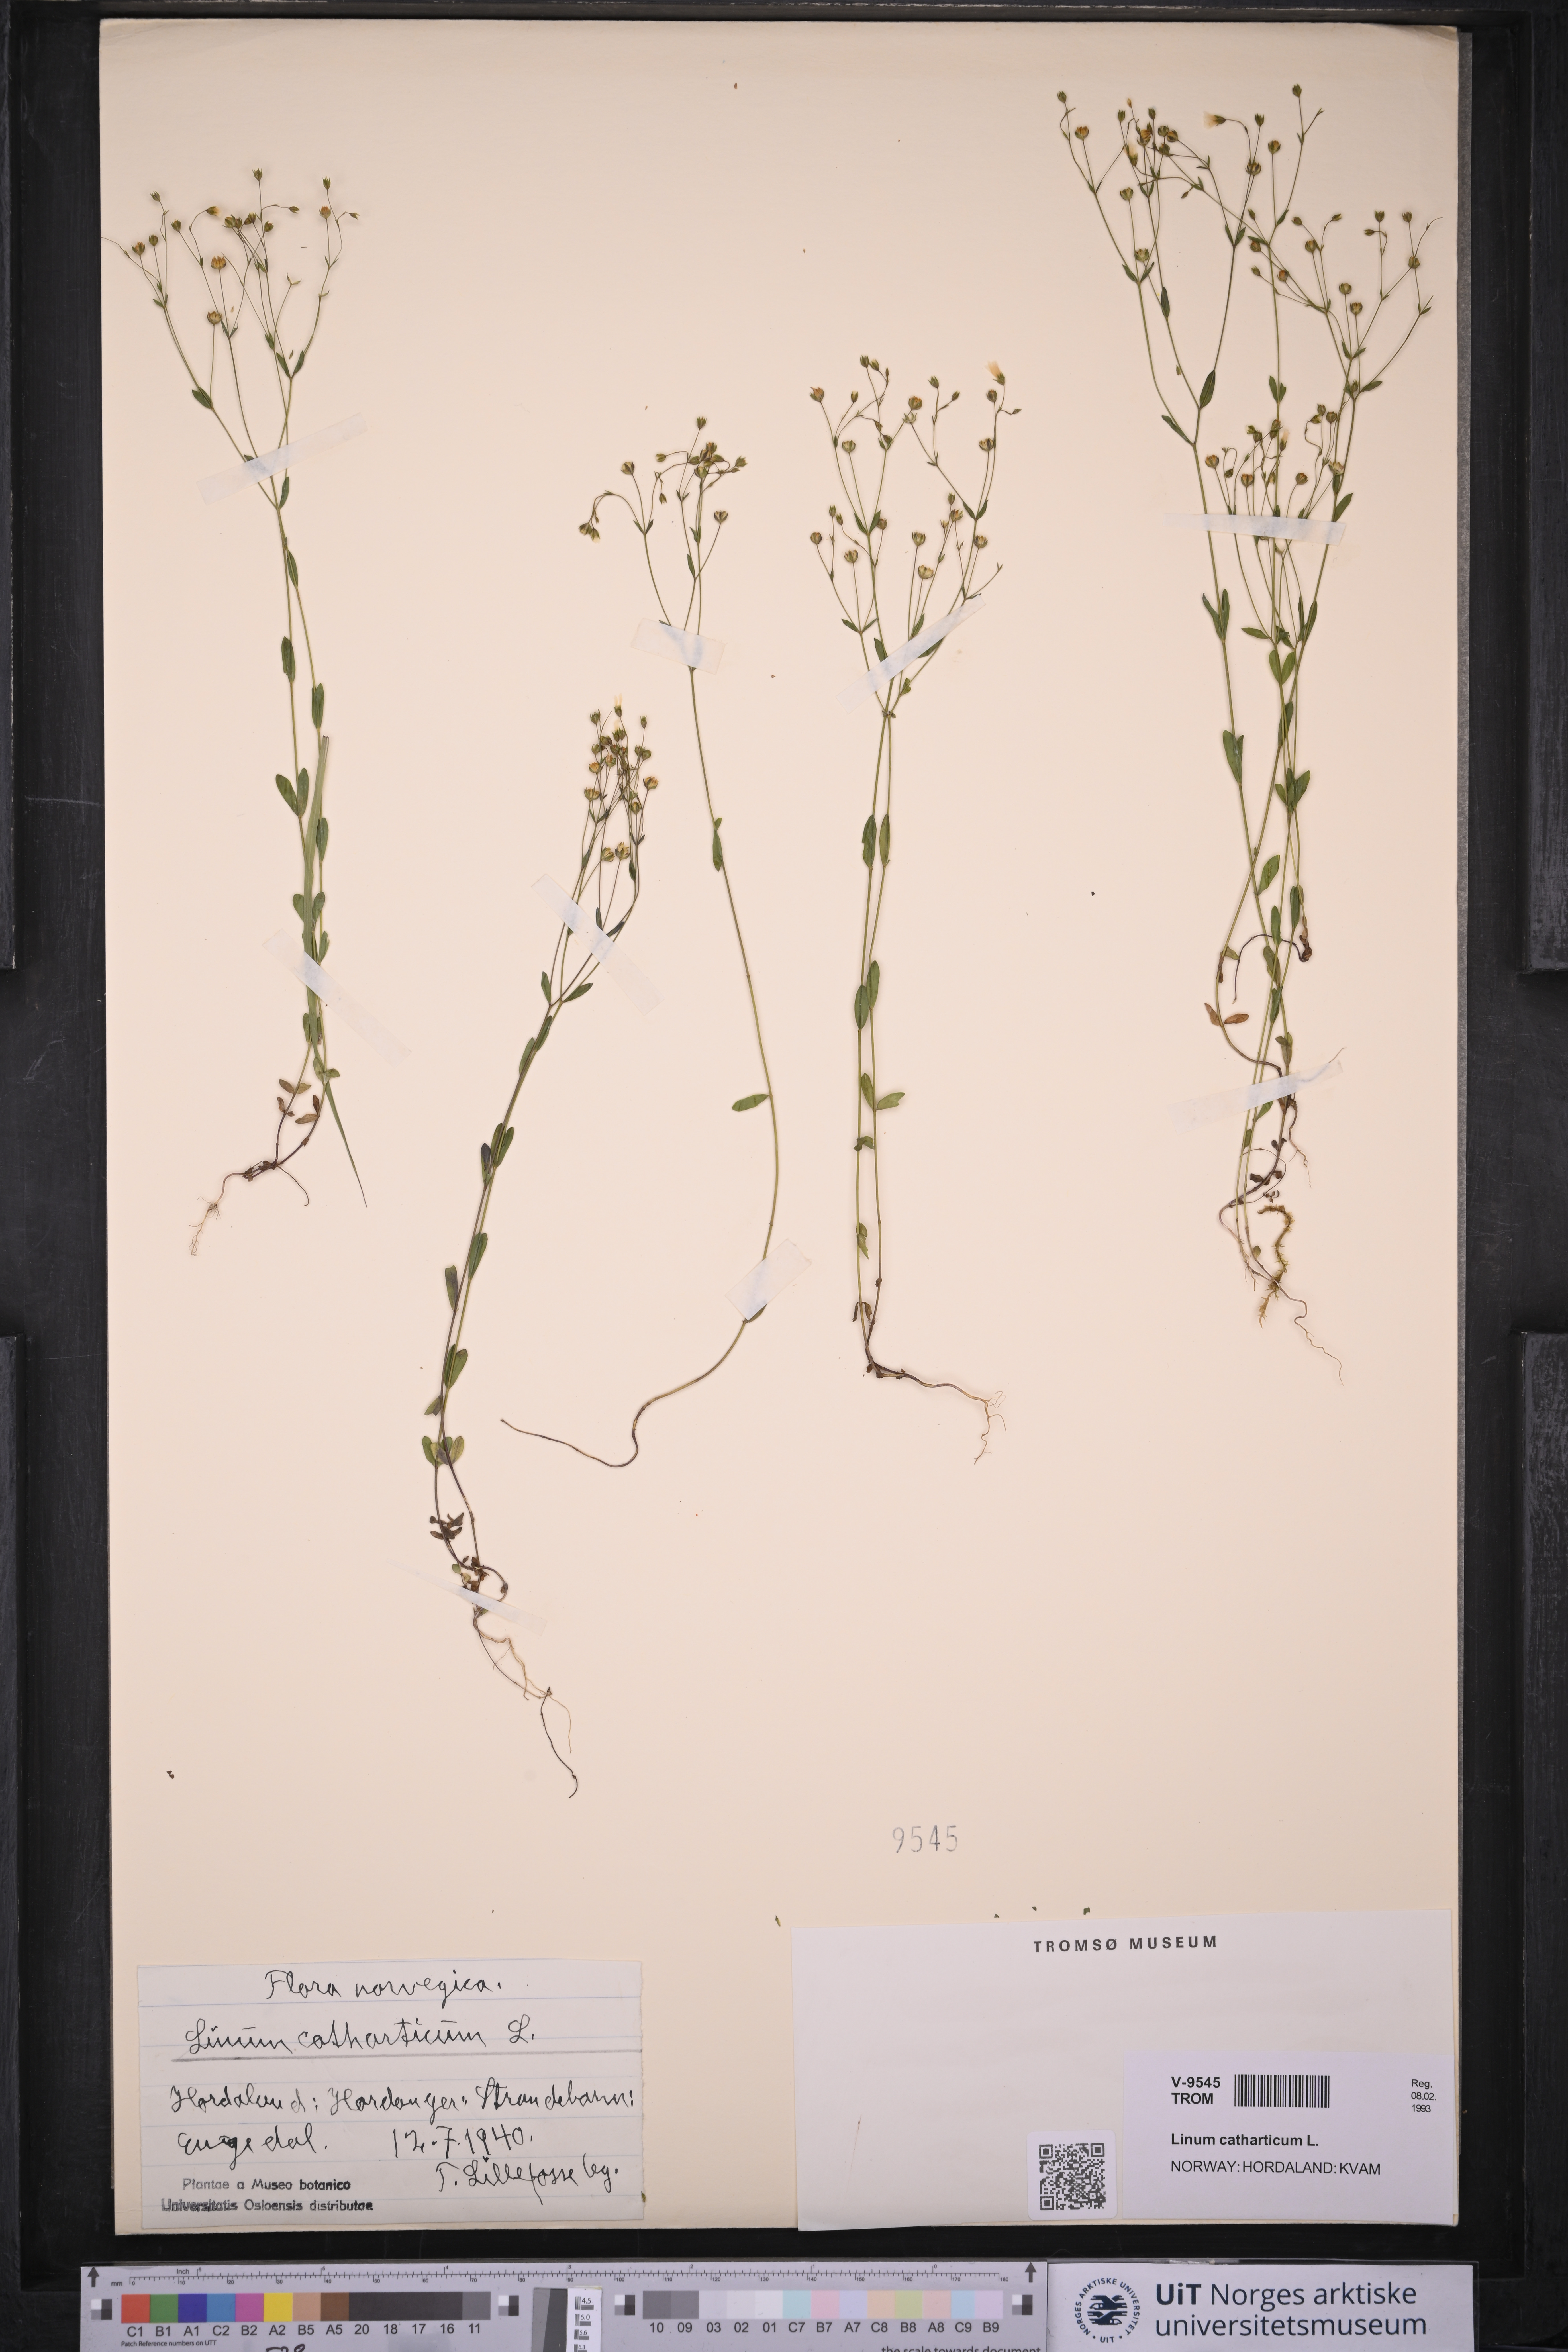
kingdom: Plantae
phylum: Tracheophyta
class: Magnoliopsida
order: Malpighiales
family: Linaceae
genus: Linum
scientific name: Linum catharticum
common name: Fairy flax
